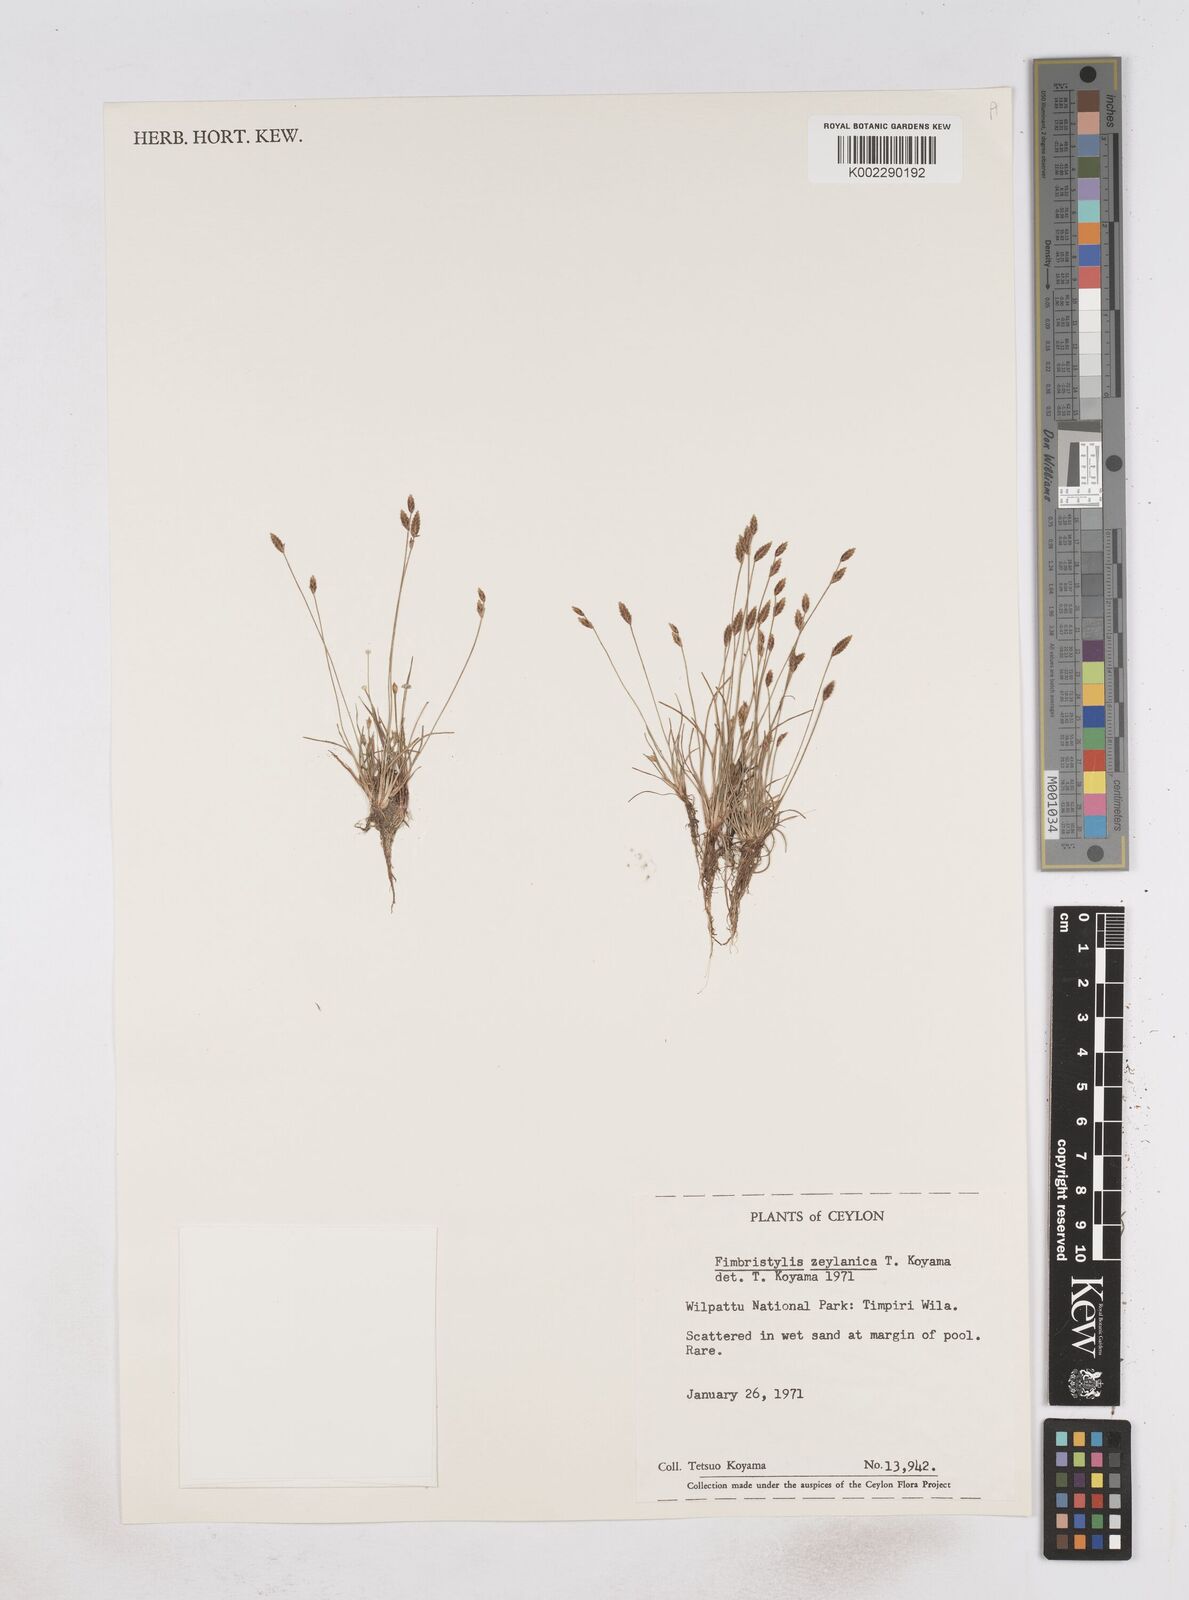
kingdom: Plantae
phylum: Tracheophyta
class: Liliopsida
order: Poales
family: Cyperaceae
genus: Fimbristylis
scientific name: Fimbristylis zeylanica
